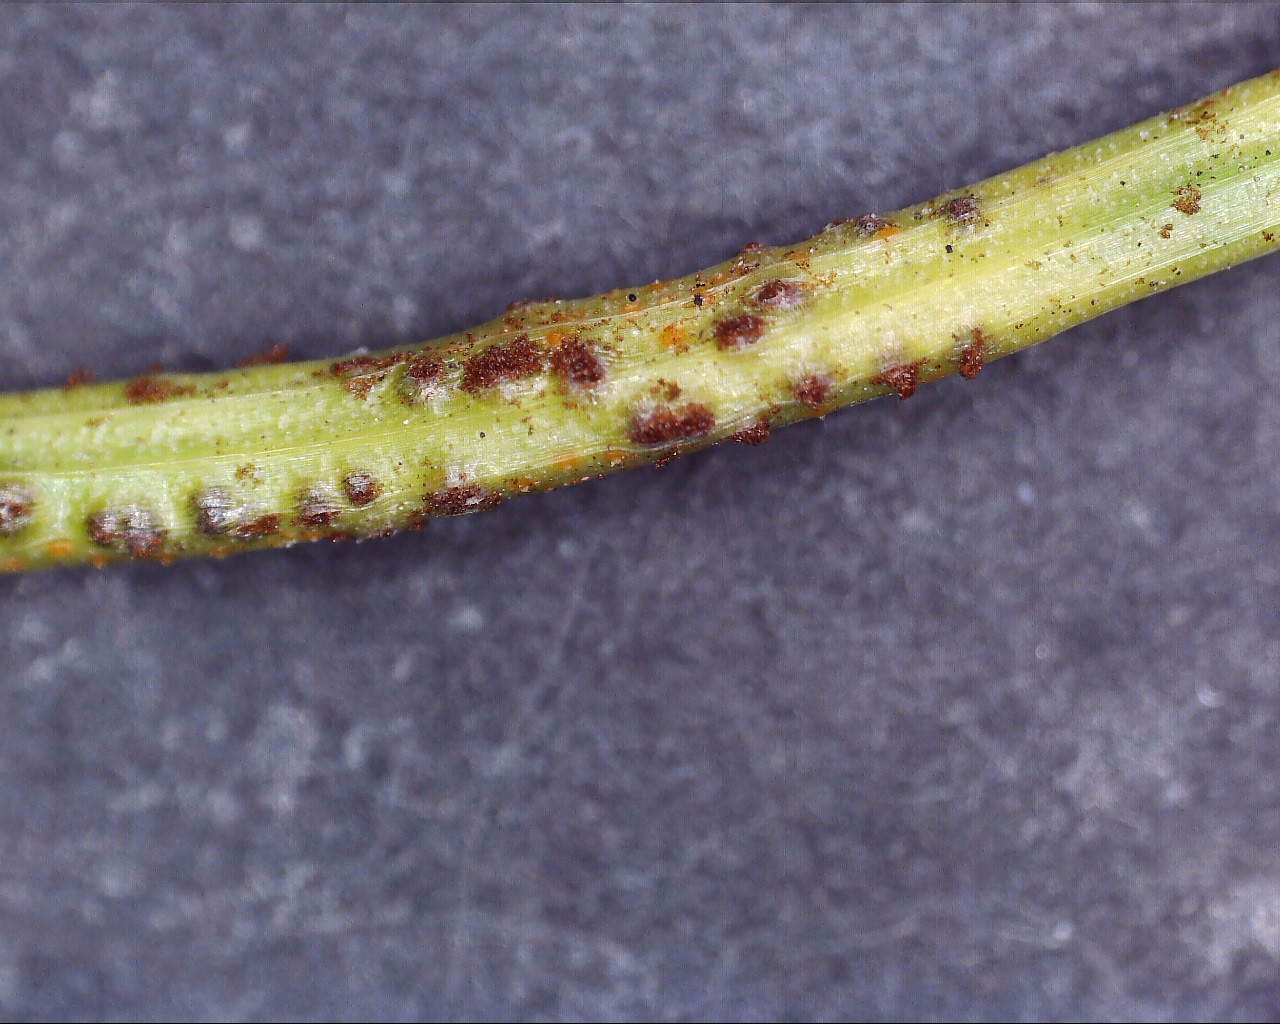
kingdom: Fungi
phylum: Basidiomycota
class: Pucciniomycetes
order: Pucciniales
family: Pucciniaceae
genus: Puccinia
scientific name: Puccinia liliacearum
